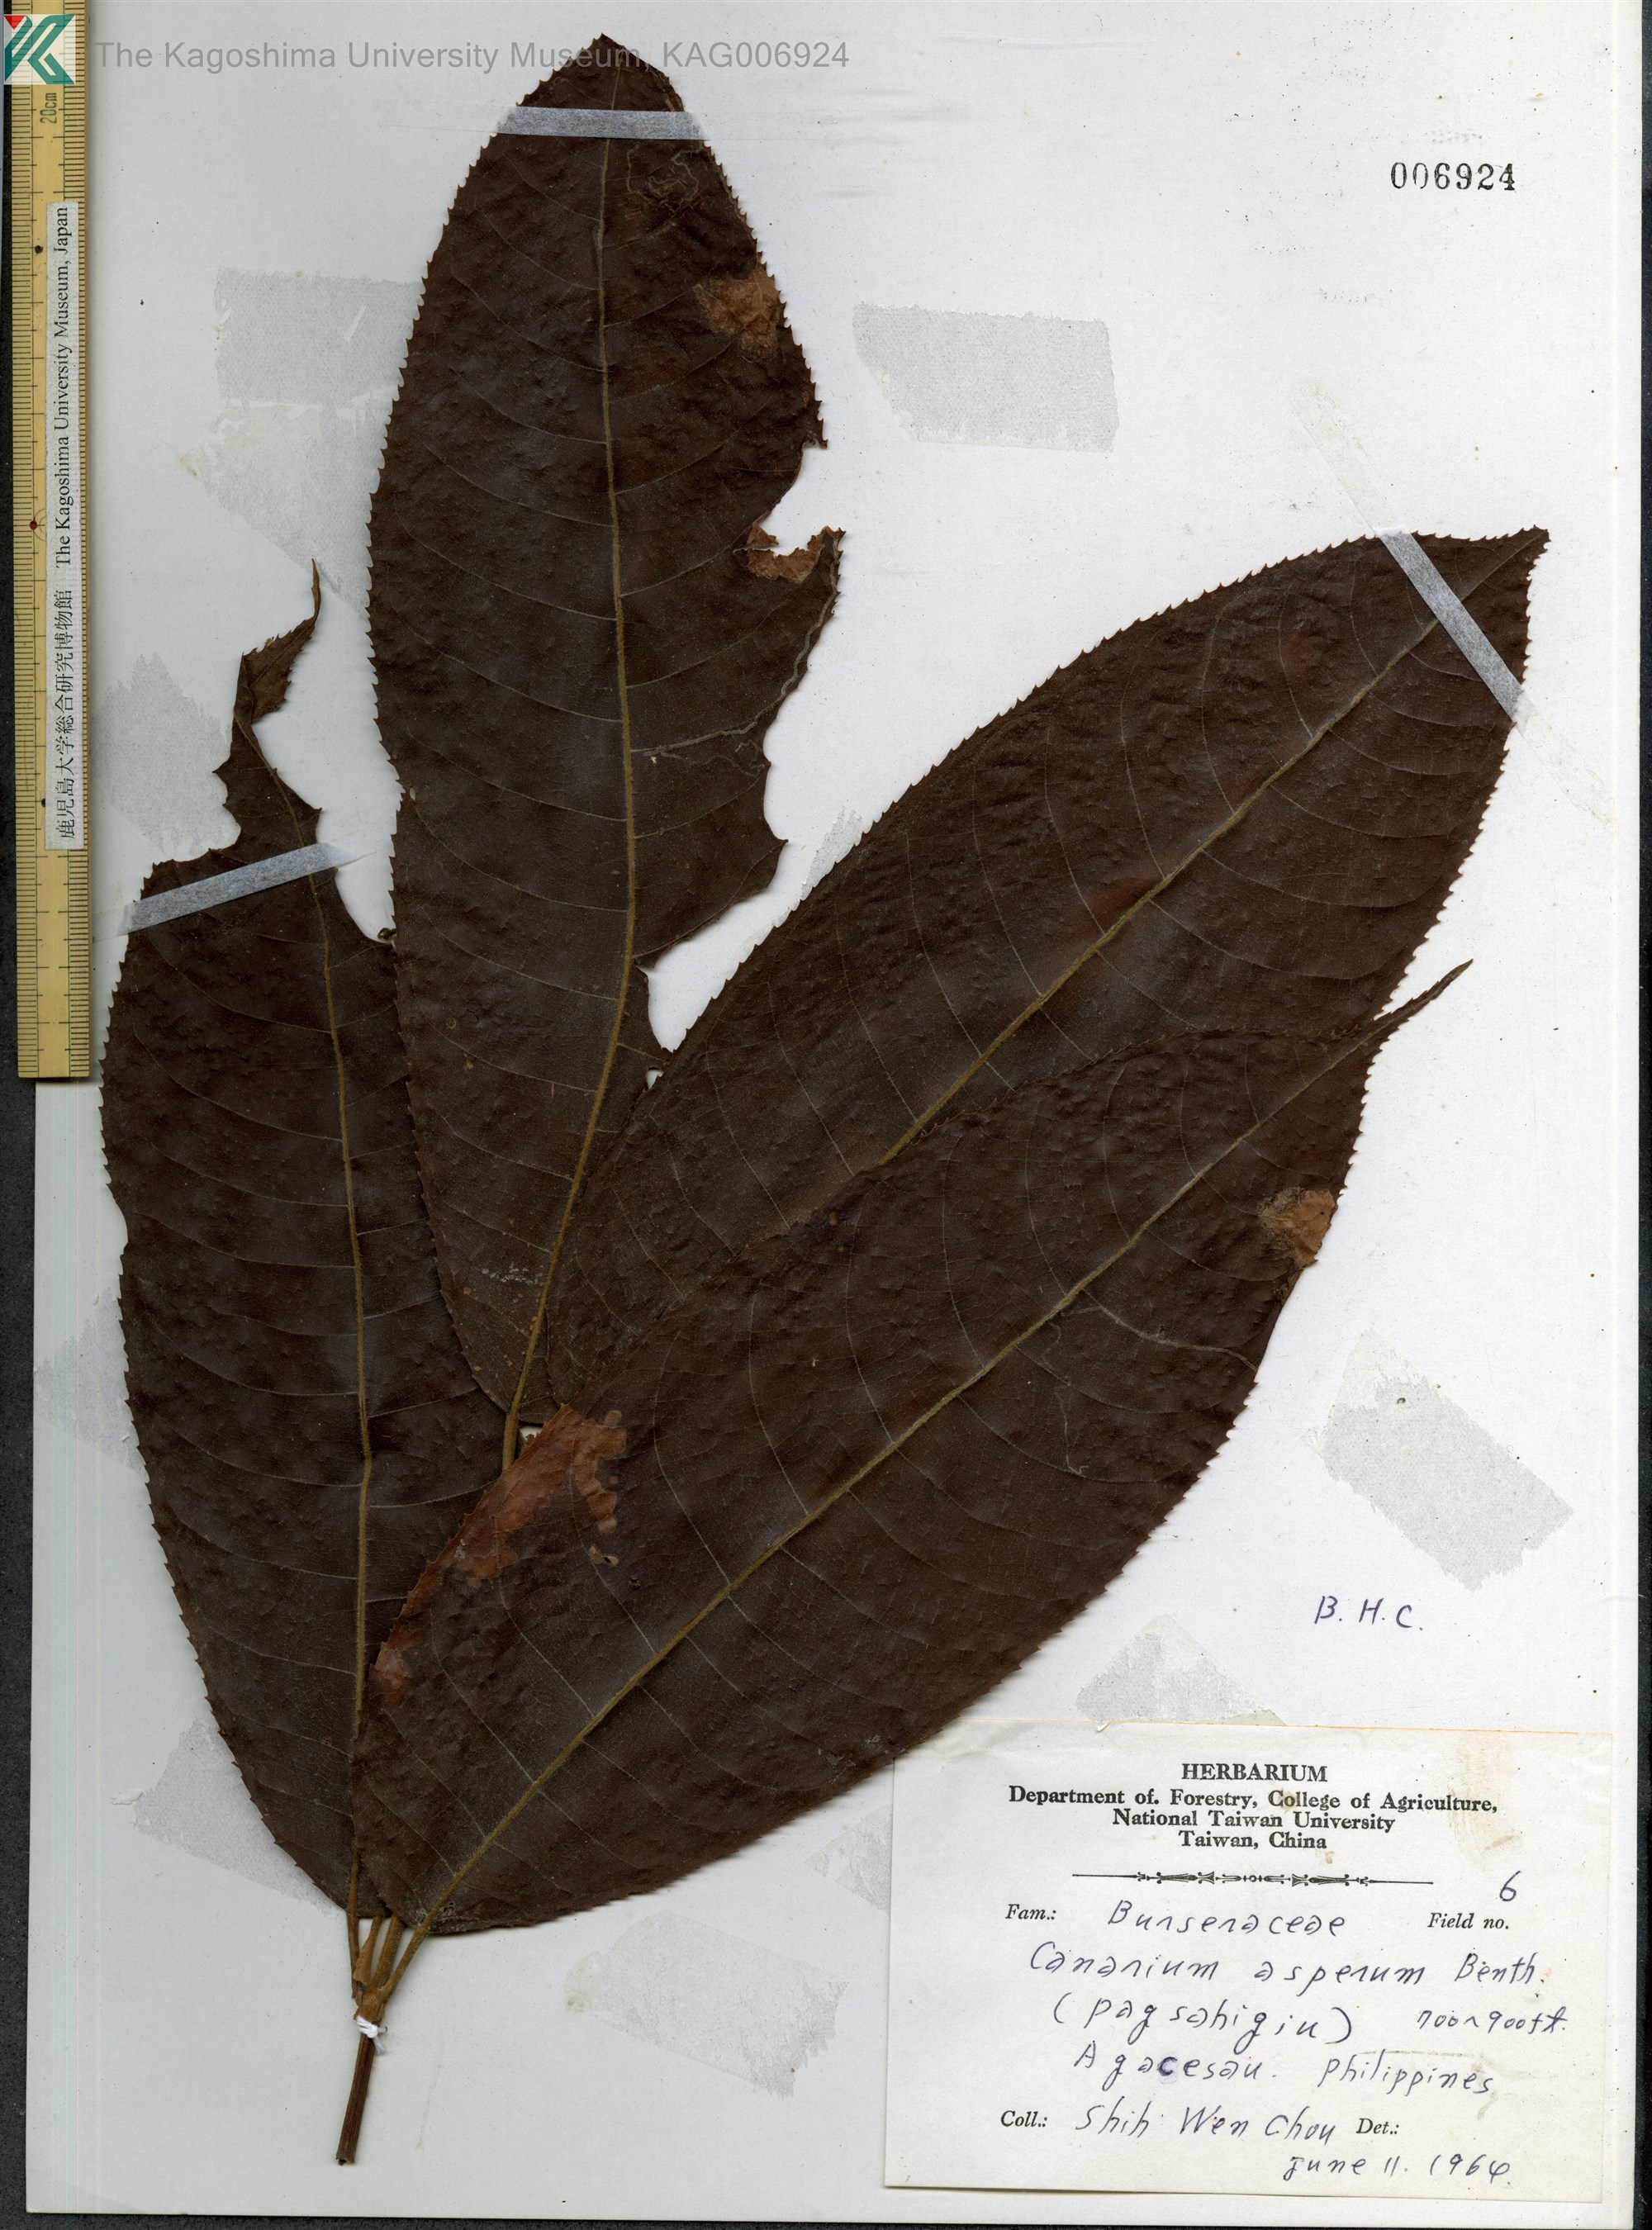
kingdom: Plantae
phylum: Tracheophyta
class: Magnoliopsida
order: Sapindales
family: Burseraceae
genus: Canarium
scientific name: Canarium asperum
